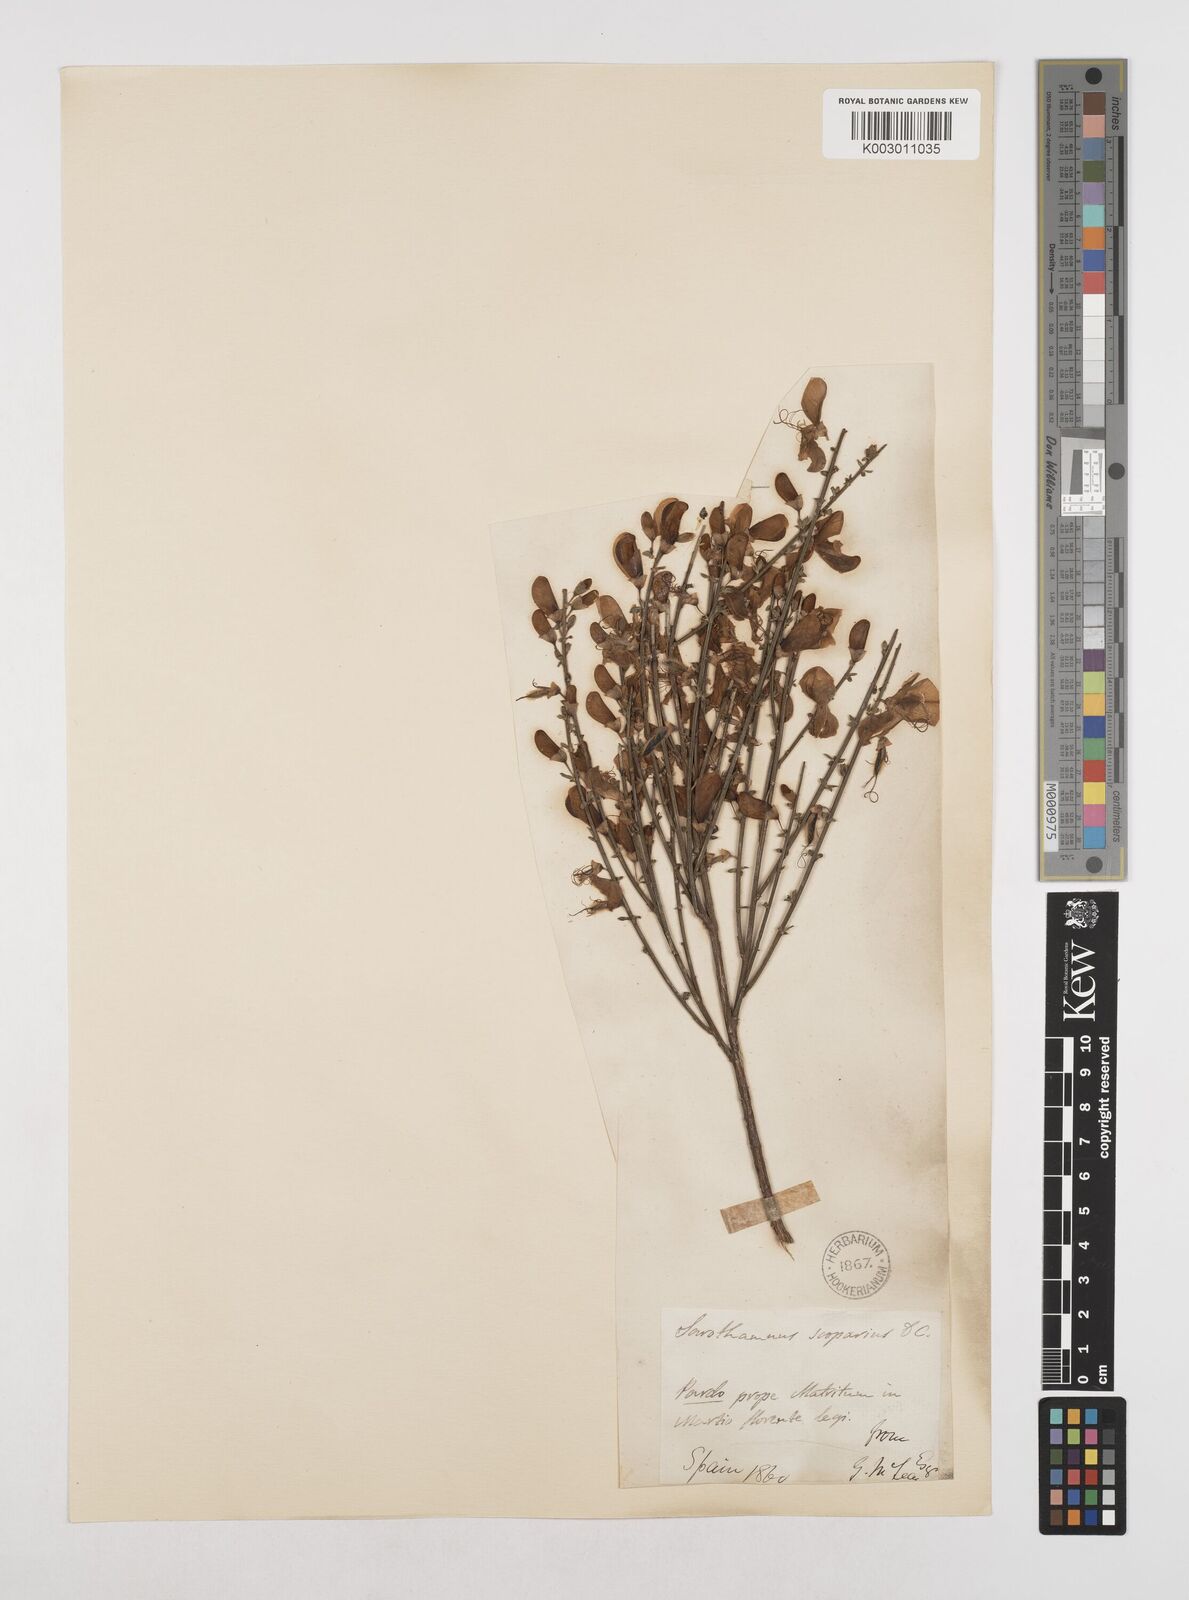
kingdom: Plantae
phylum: Tracheophyta
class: Magnoliopsida
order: Fabales
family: Fabaceae
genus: Cytisus
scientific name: Cytisus scoparius
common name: Scotch broom
